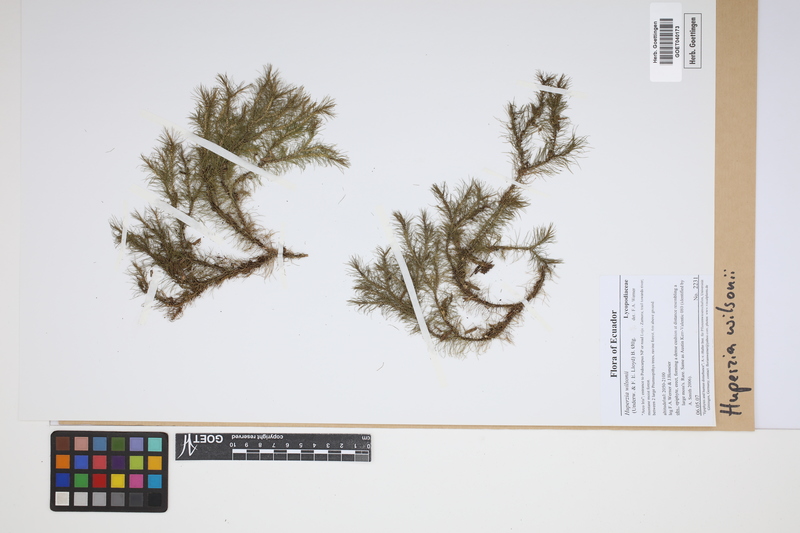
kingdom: Plantae
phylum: Tracheophyta
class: Lycopodiopsida
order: Lycopodiales
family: Lycopodiaceae
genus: Phlegmariurus
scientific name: Phlegmariurus wilsonii
